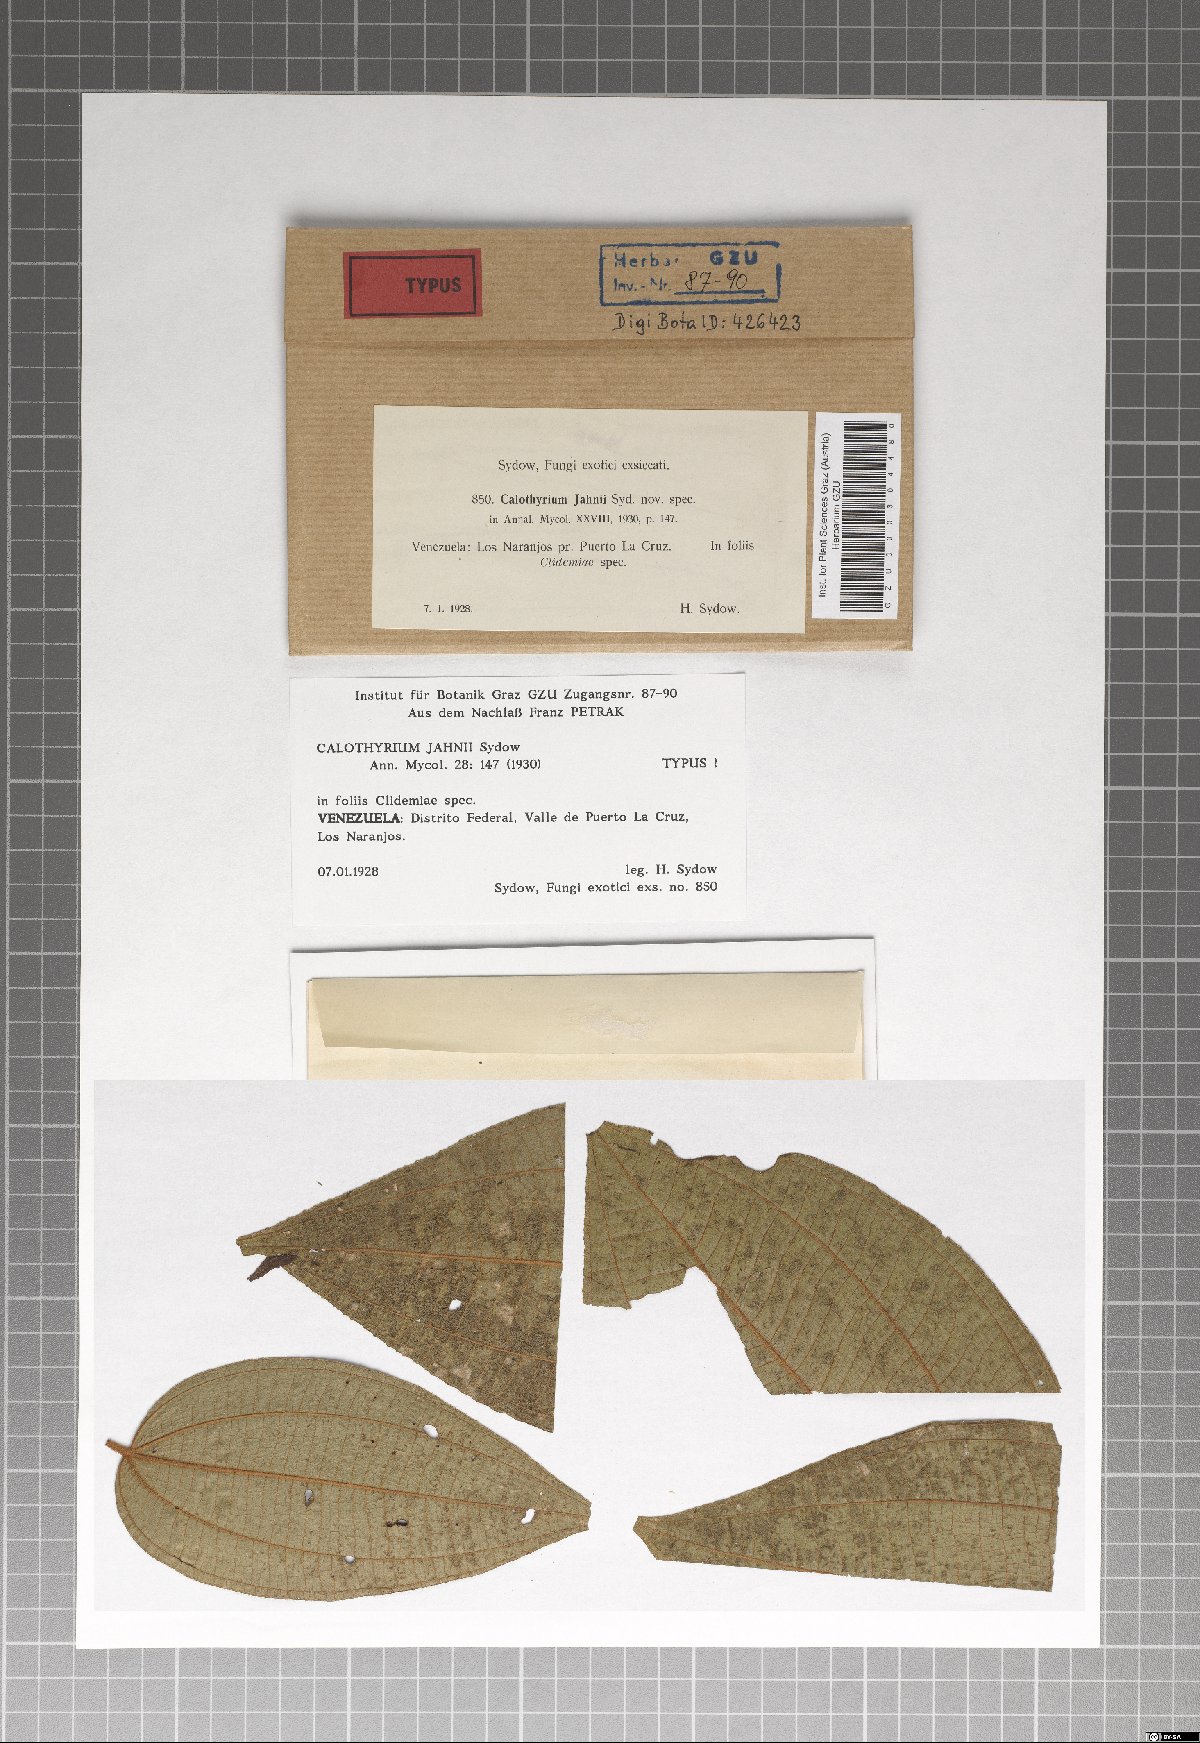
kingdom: Fungi
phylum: Ascomycota
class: Dothideomycetes
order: Microthyriales
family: Microthyriaceae
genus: Calothyrium
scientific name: Calothyrium jahnii
